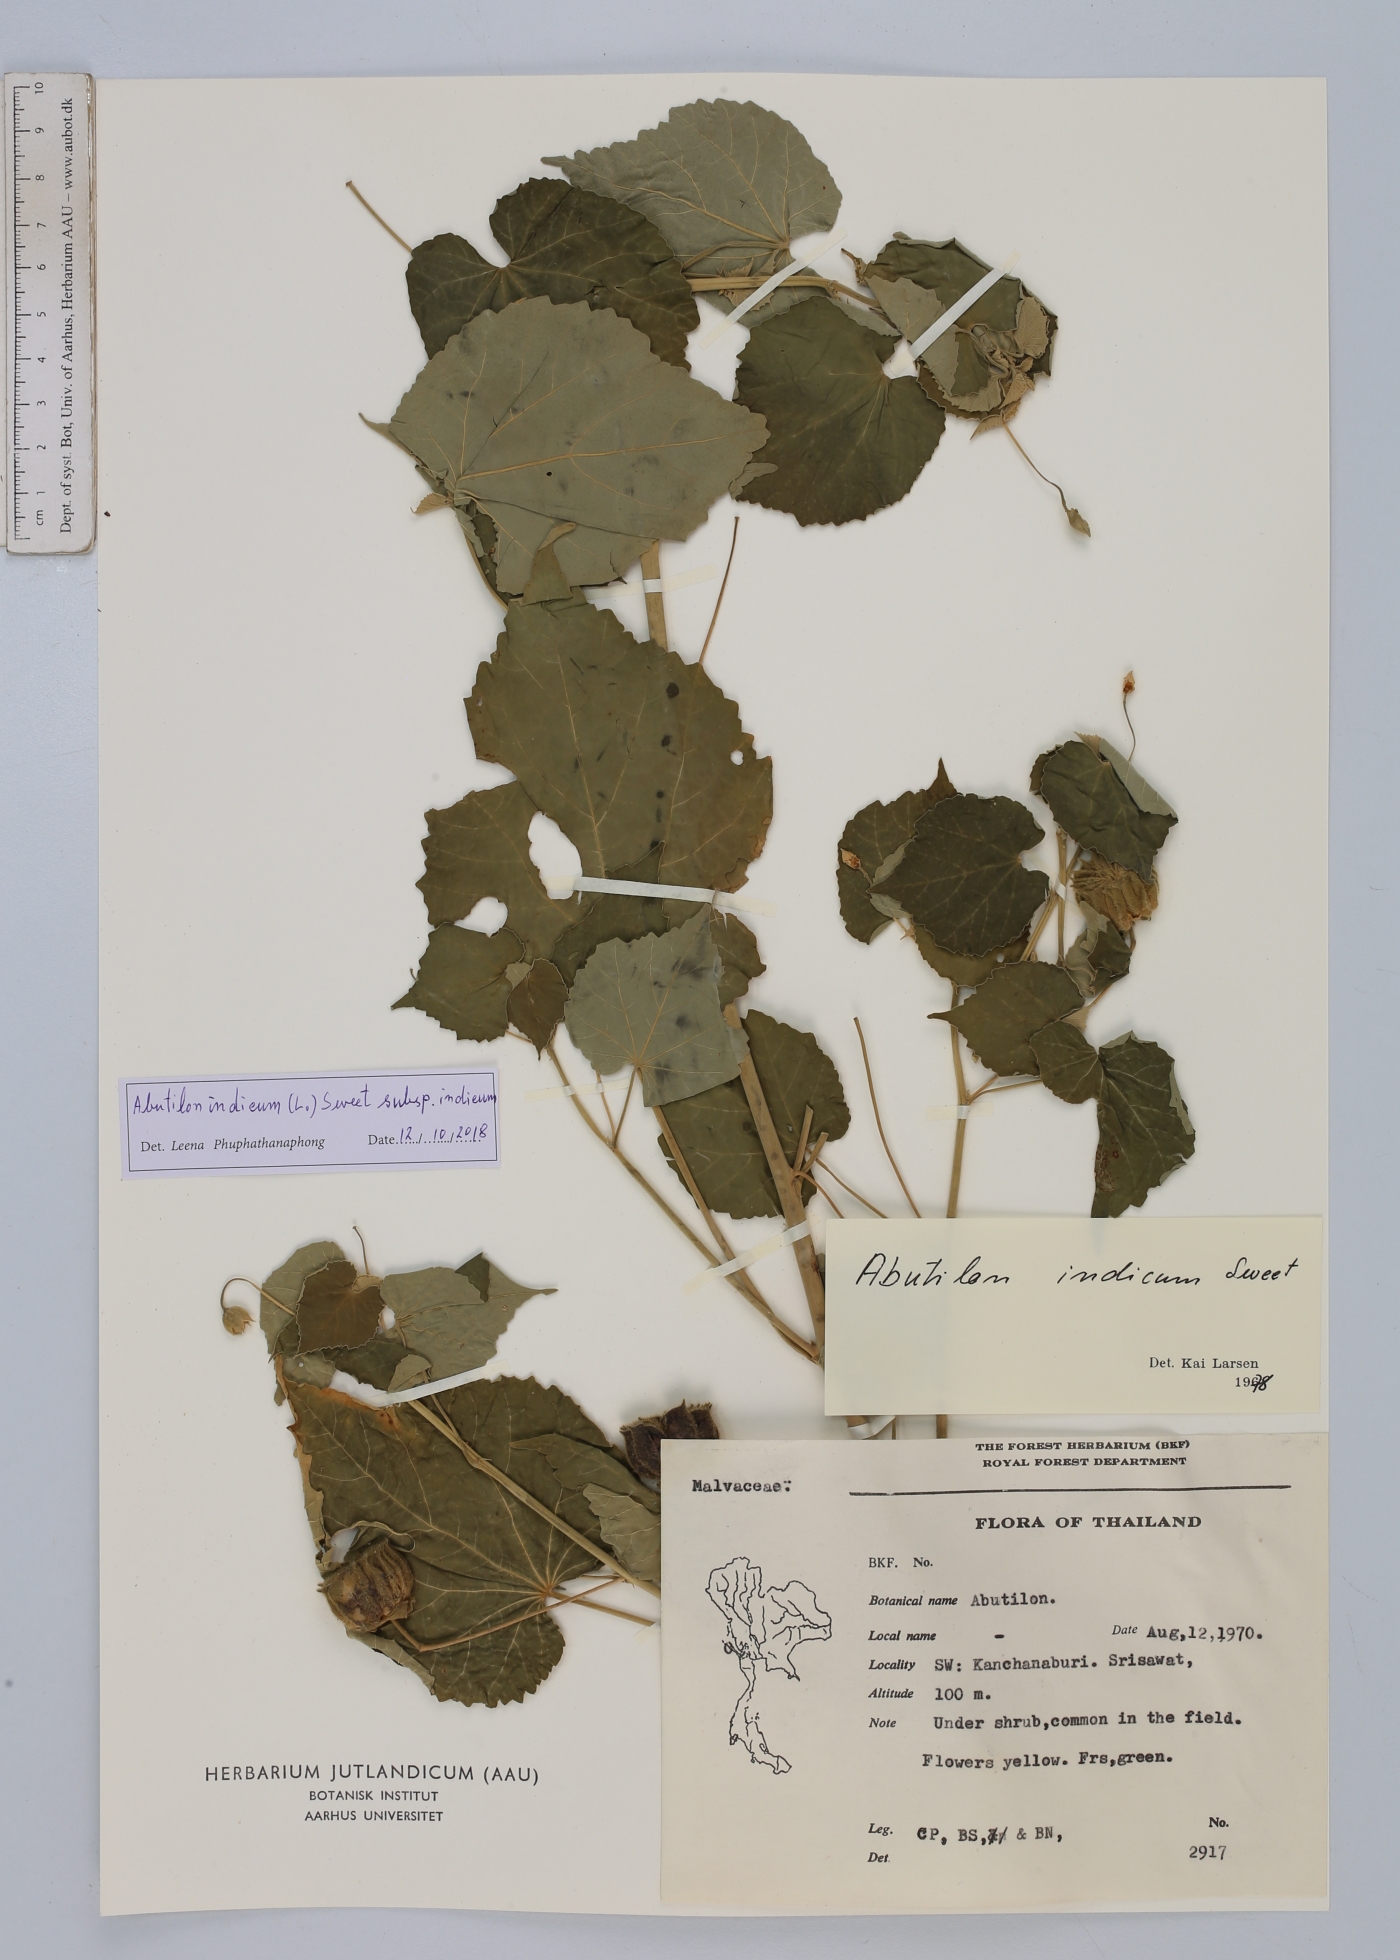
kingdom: Plantae
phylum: Tracheophyta
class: Magnoliopsida
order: Malvales
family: Malvaceae
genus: Abutilon
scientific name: Abutilon indicum
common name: Indian abutilon
